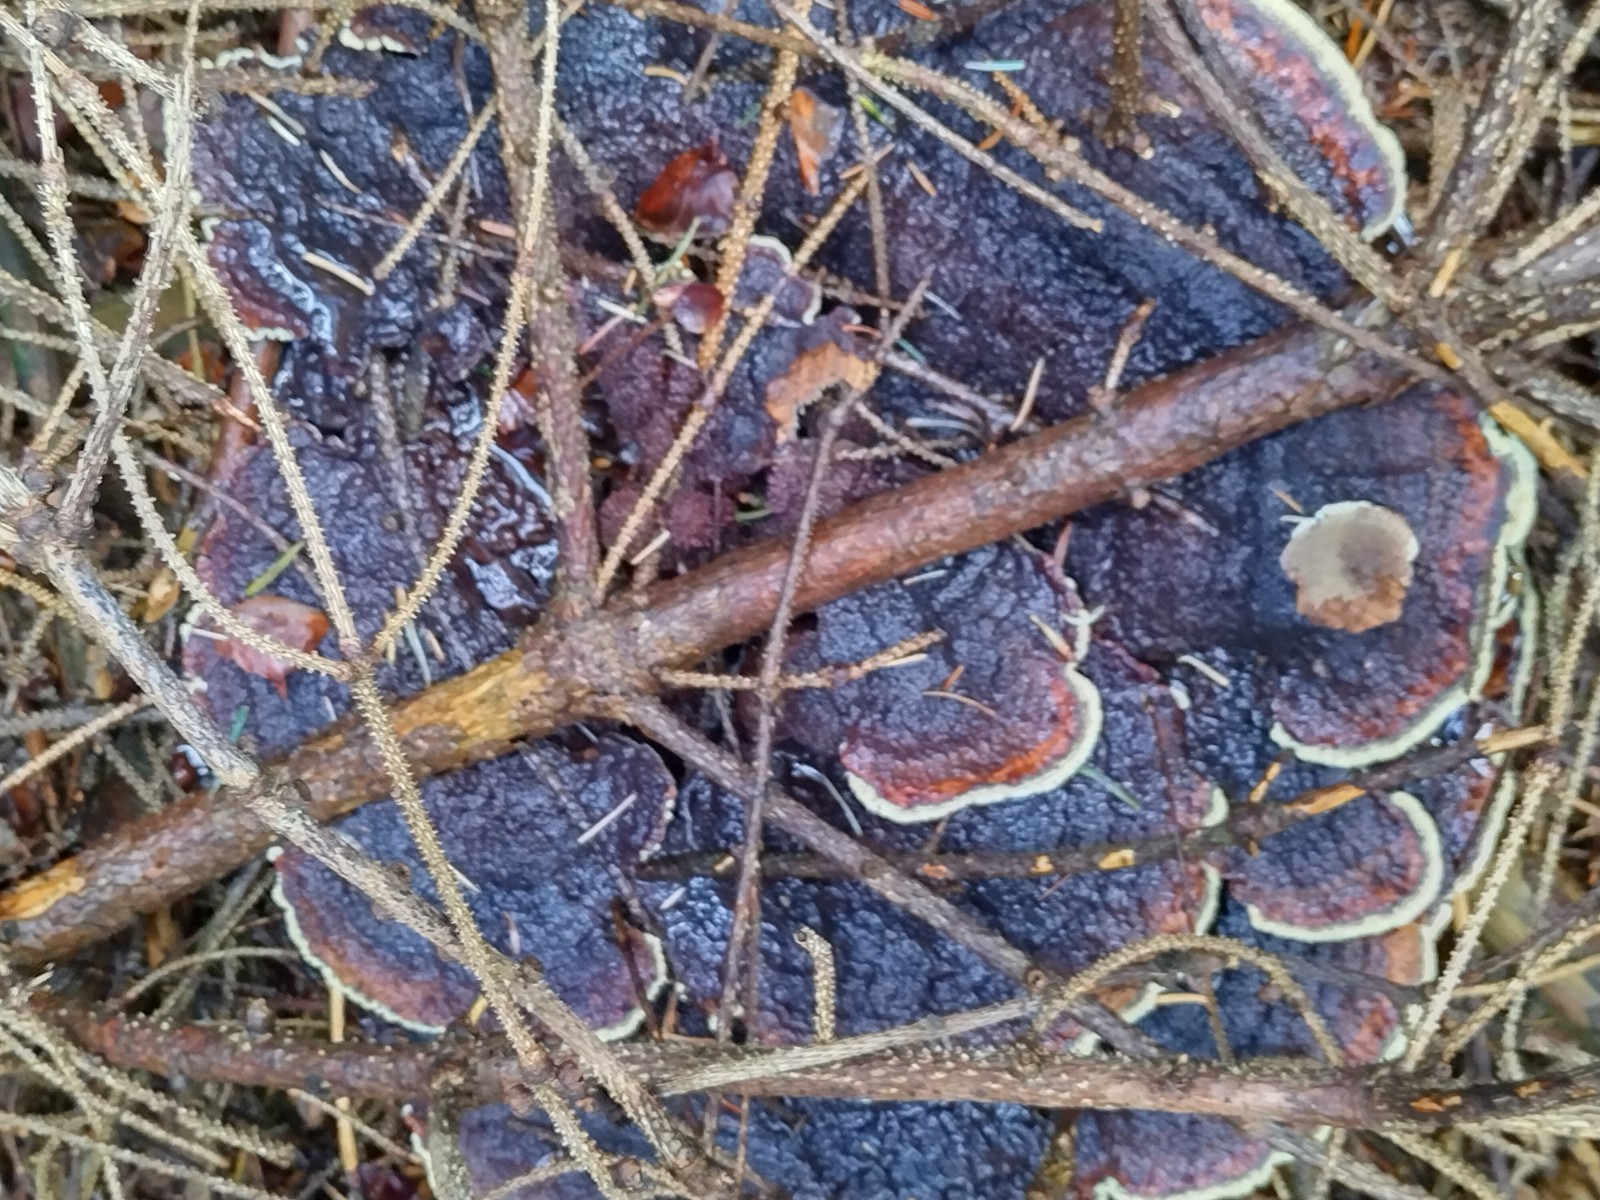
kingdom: Fungi
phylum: Basidiomycota
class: Agaricomycetes
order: Polyporales
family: Laetiporaceae
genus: Phaeolus
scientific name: Phaeolus schweinitzii
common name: brunporesvamp
